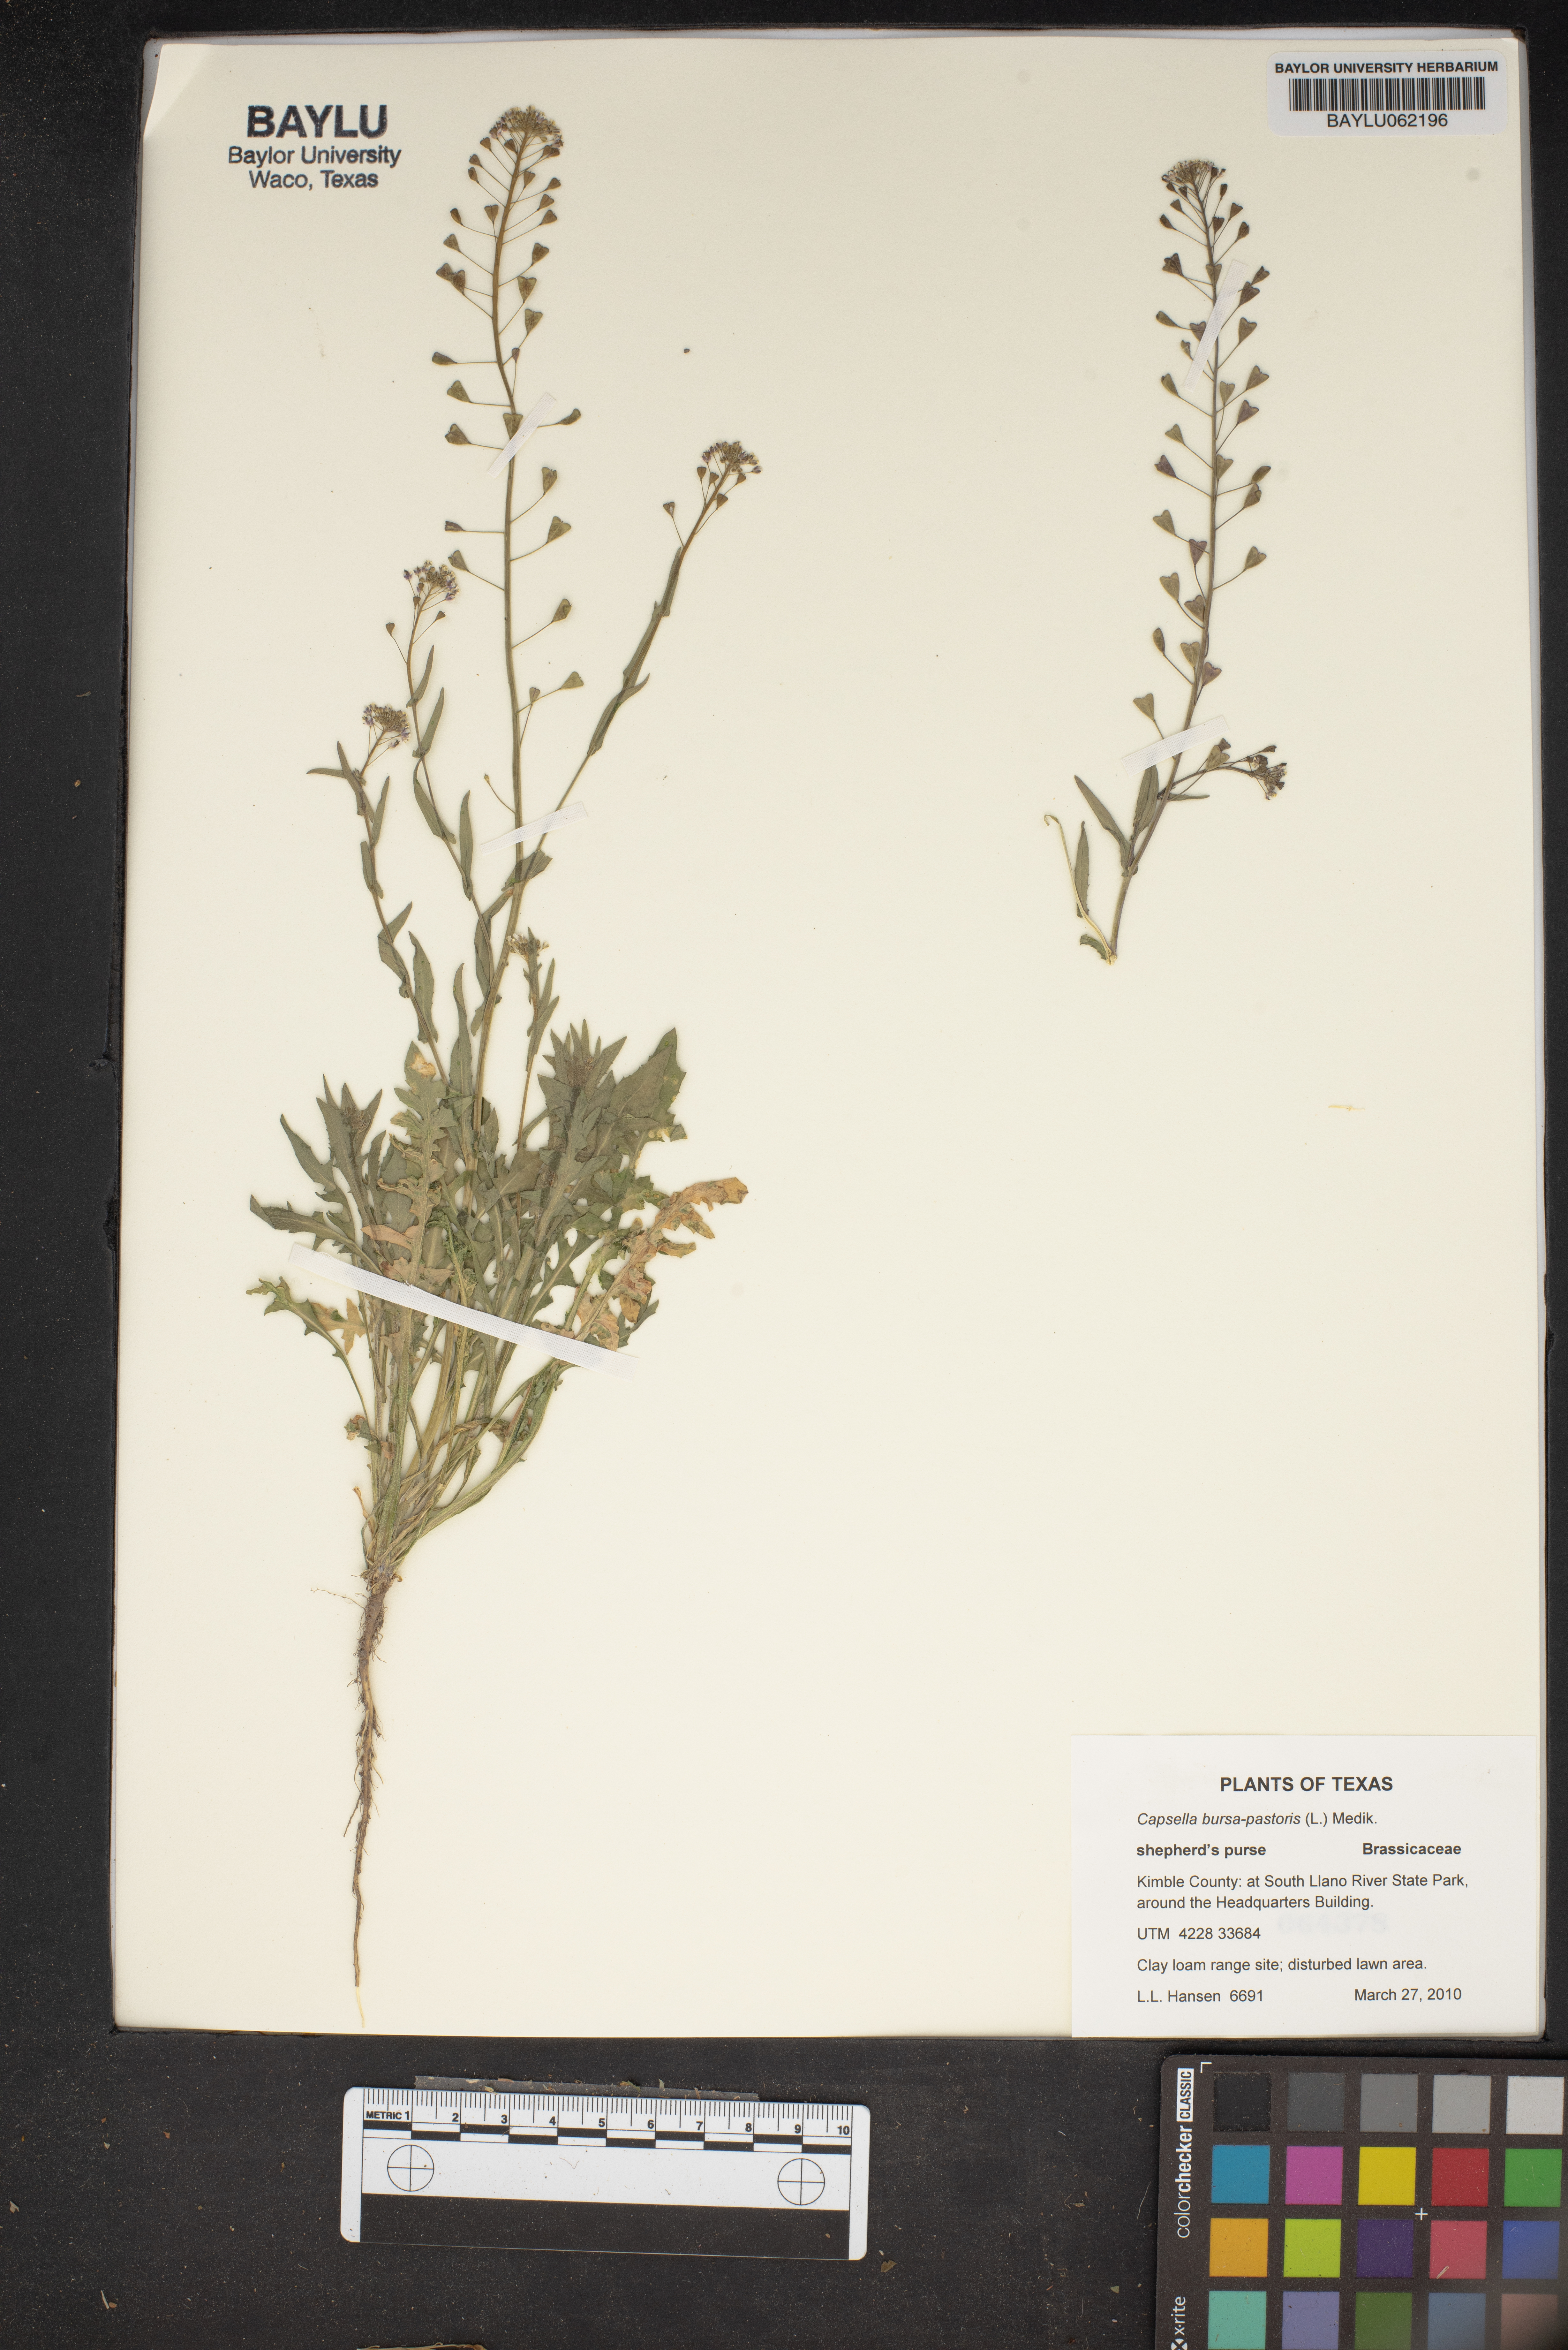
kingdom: Plantae
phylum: Tracheophyta
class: Magnoliopsida
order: Brassicales
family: Brassicaceae
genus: Capsella
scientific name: Capsella bursa-pastoris
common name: Shepherd's purse
